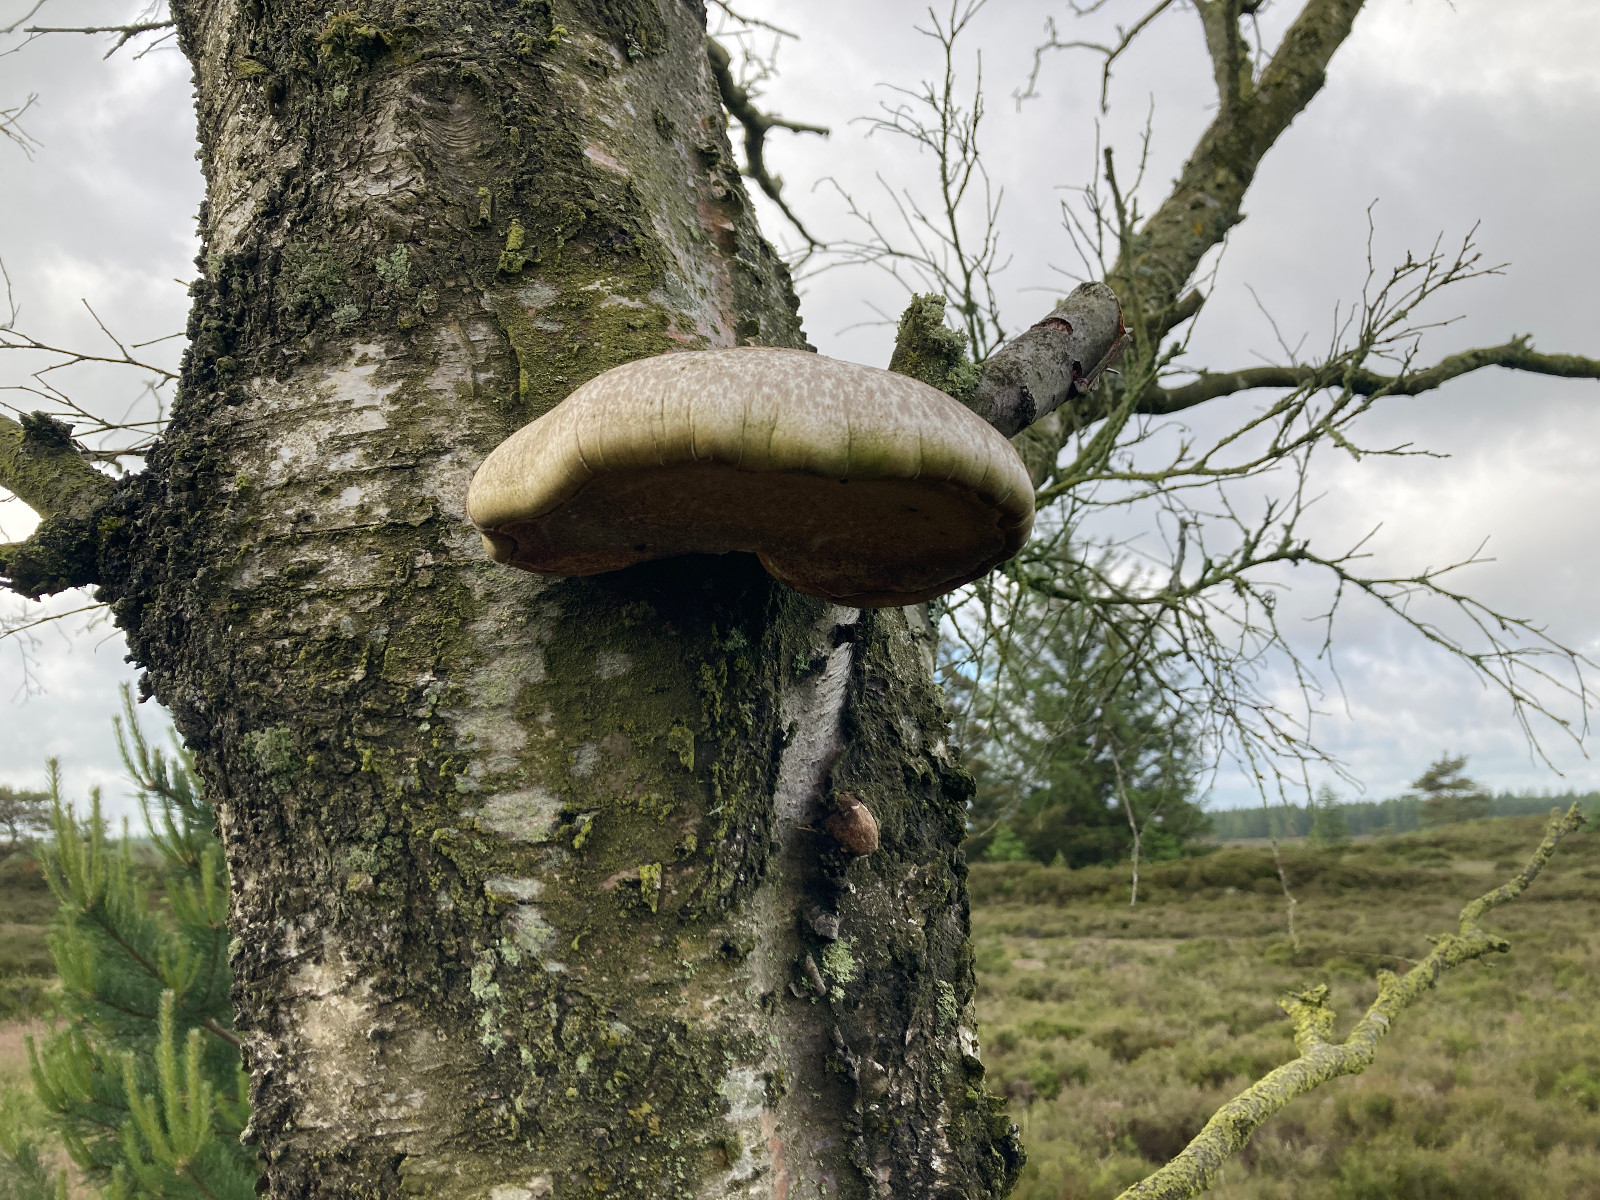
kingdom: Fungi
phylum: Basidiomycota
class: Agaricomycetes
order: Polyporales
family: Fomitopsidaceae
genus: Fomitopsis
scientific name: Fomitopsis betulina
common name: birkeporesvamp
